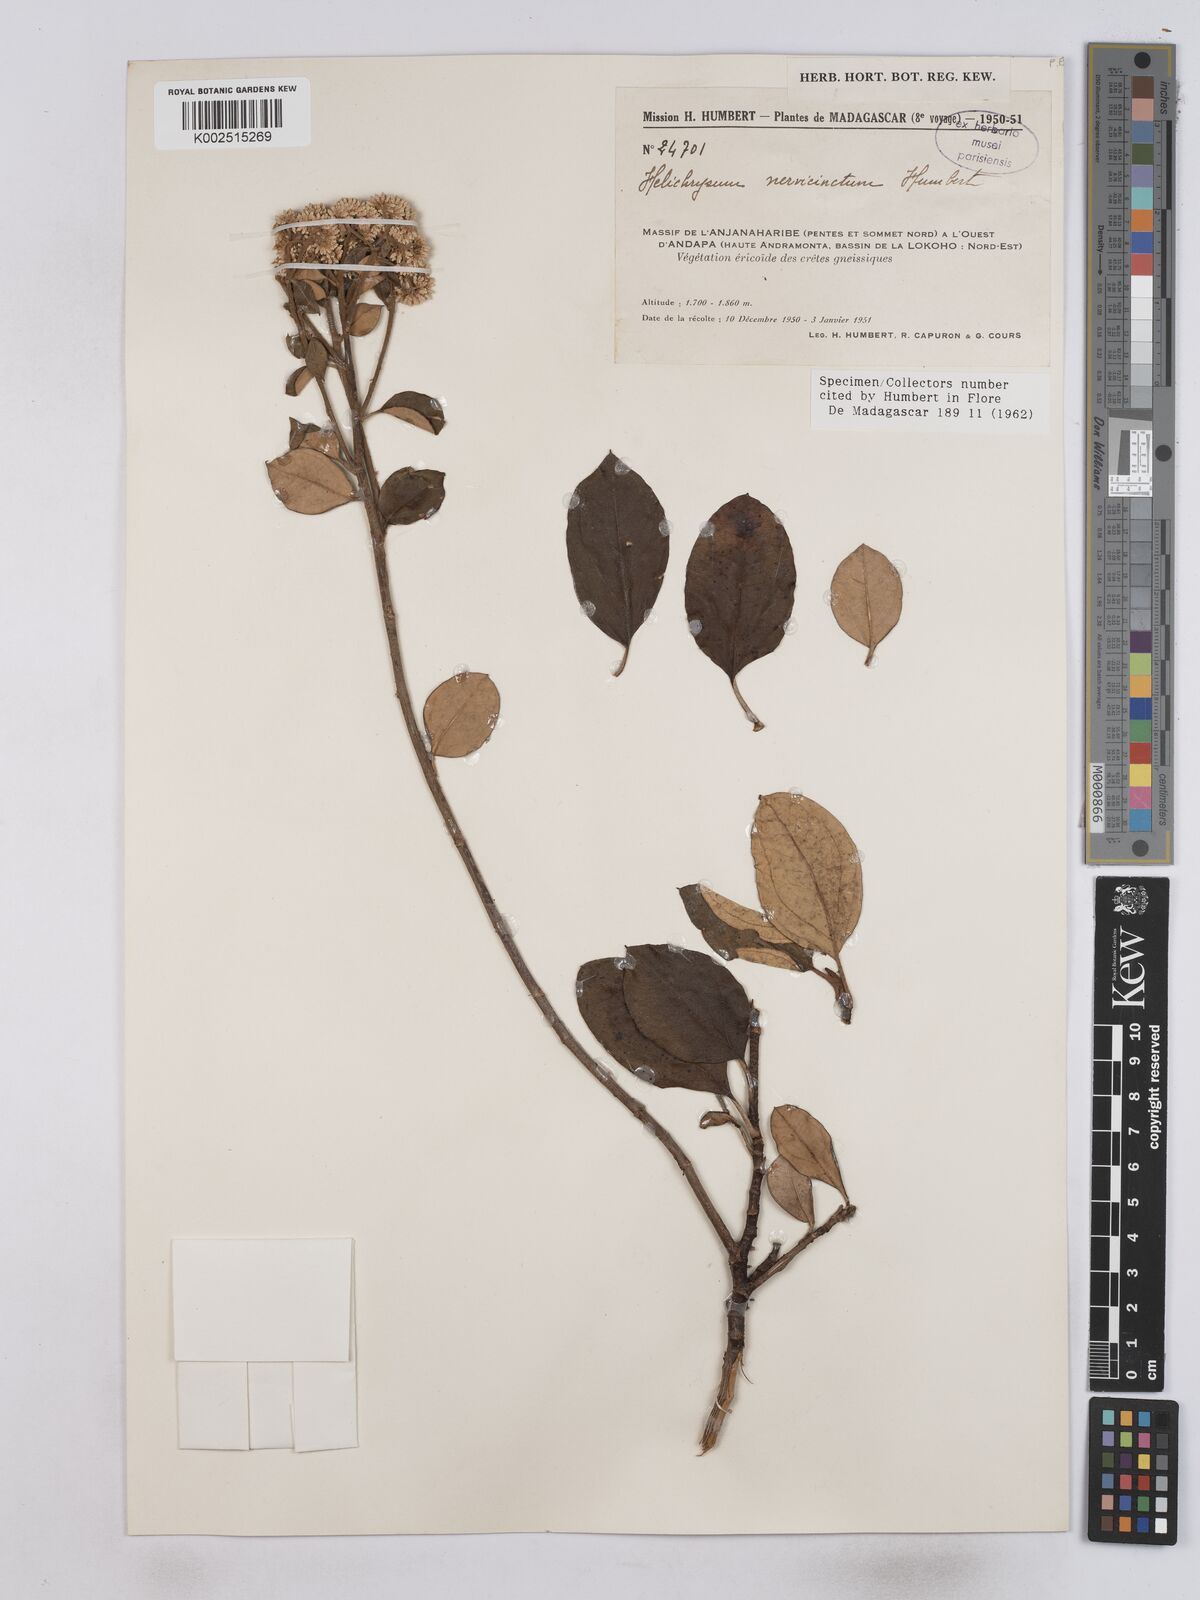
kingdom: Plantae
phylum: Tracheophyta
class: Magnoliopsida
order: Asterales
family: Asteraceae
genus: Helichrysum
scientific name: Helichrysum nervicinctum
